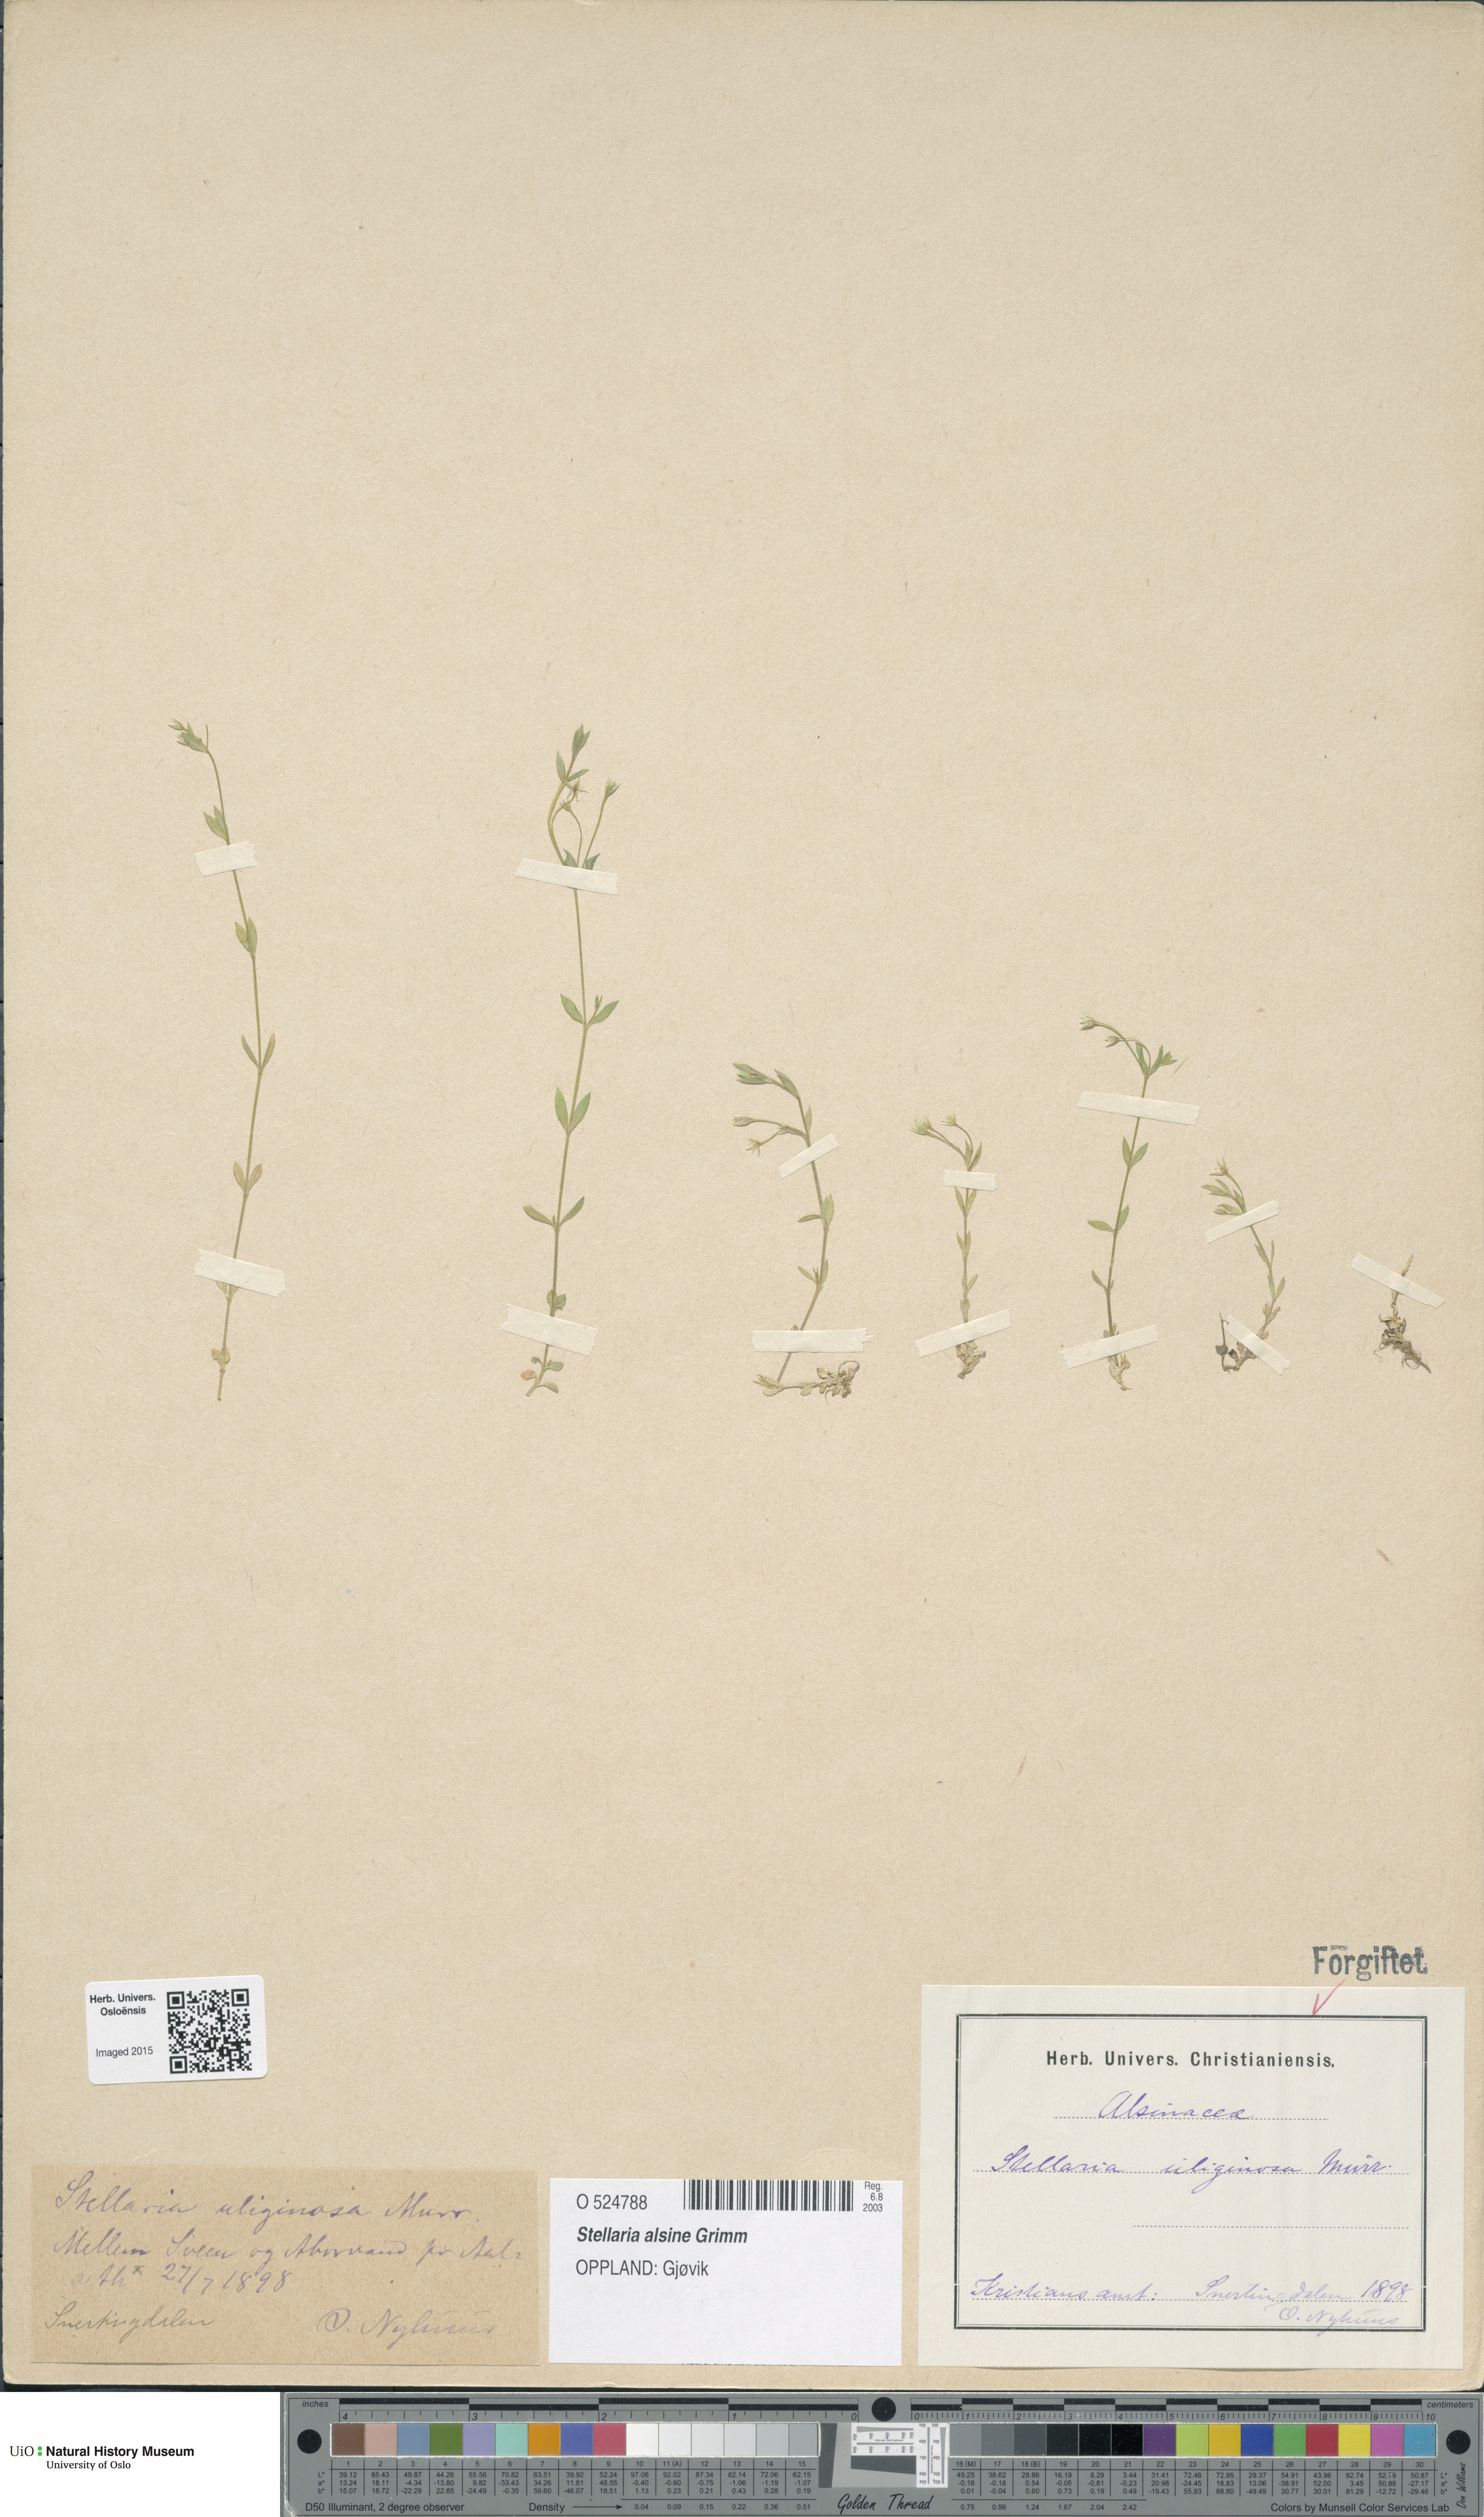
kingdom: Plantae
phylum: Tracheophyta
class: Magnoliopsida
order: Caryophyllales
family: Caryophyllaceae
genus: Stellaria
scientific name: Stellaria alsine
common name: Bog stitchwort
